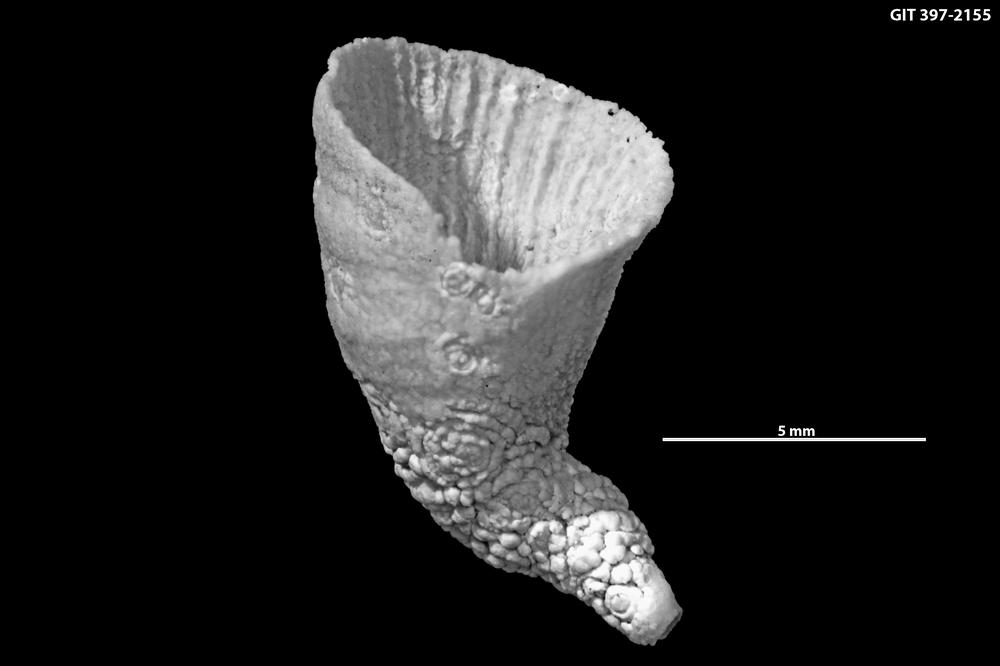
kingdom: Animalia
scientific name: Animalia
